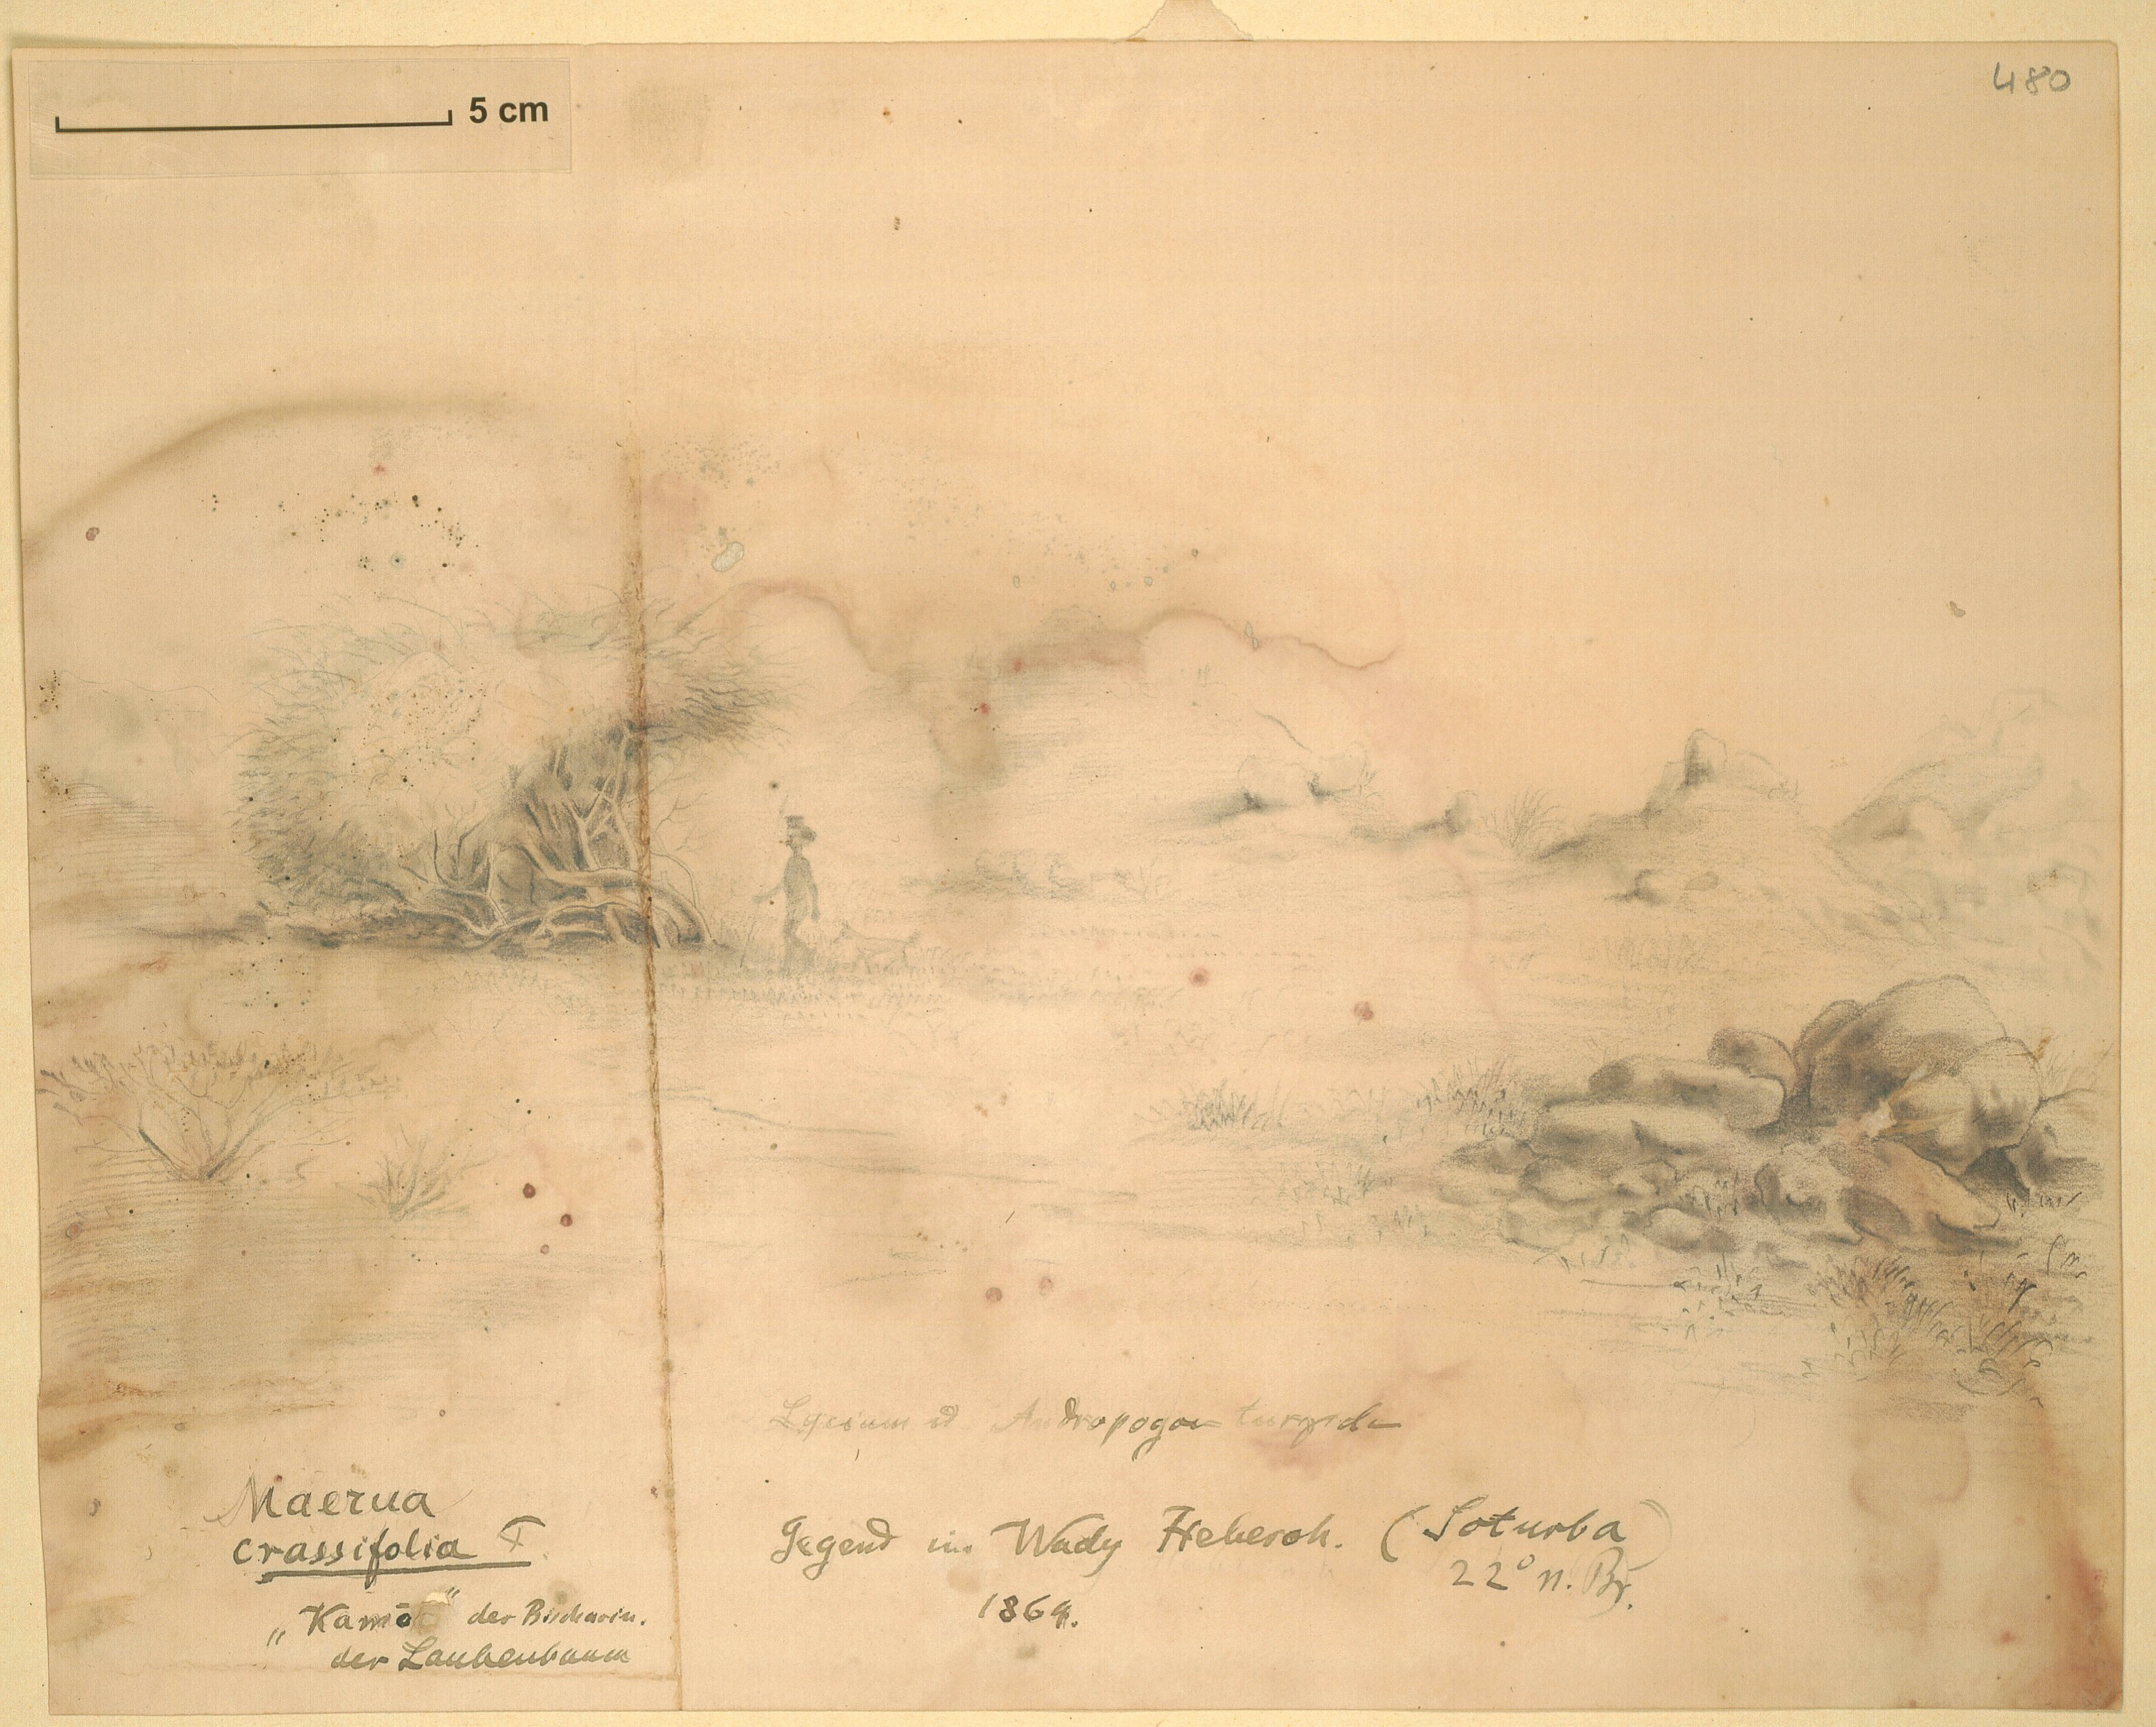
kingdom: Plantae
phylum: Tracheophyta
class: Magnoliopsida
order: Brassicales
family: Capparaceae
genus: Maerua
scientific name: Maerua crassifolia
